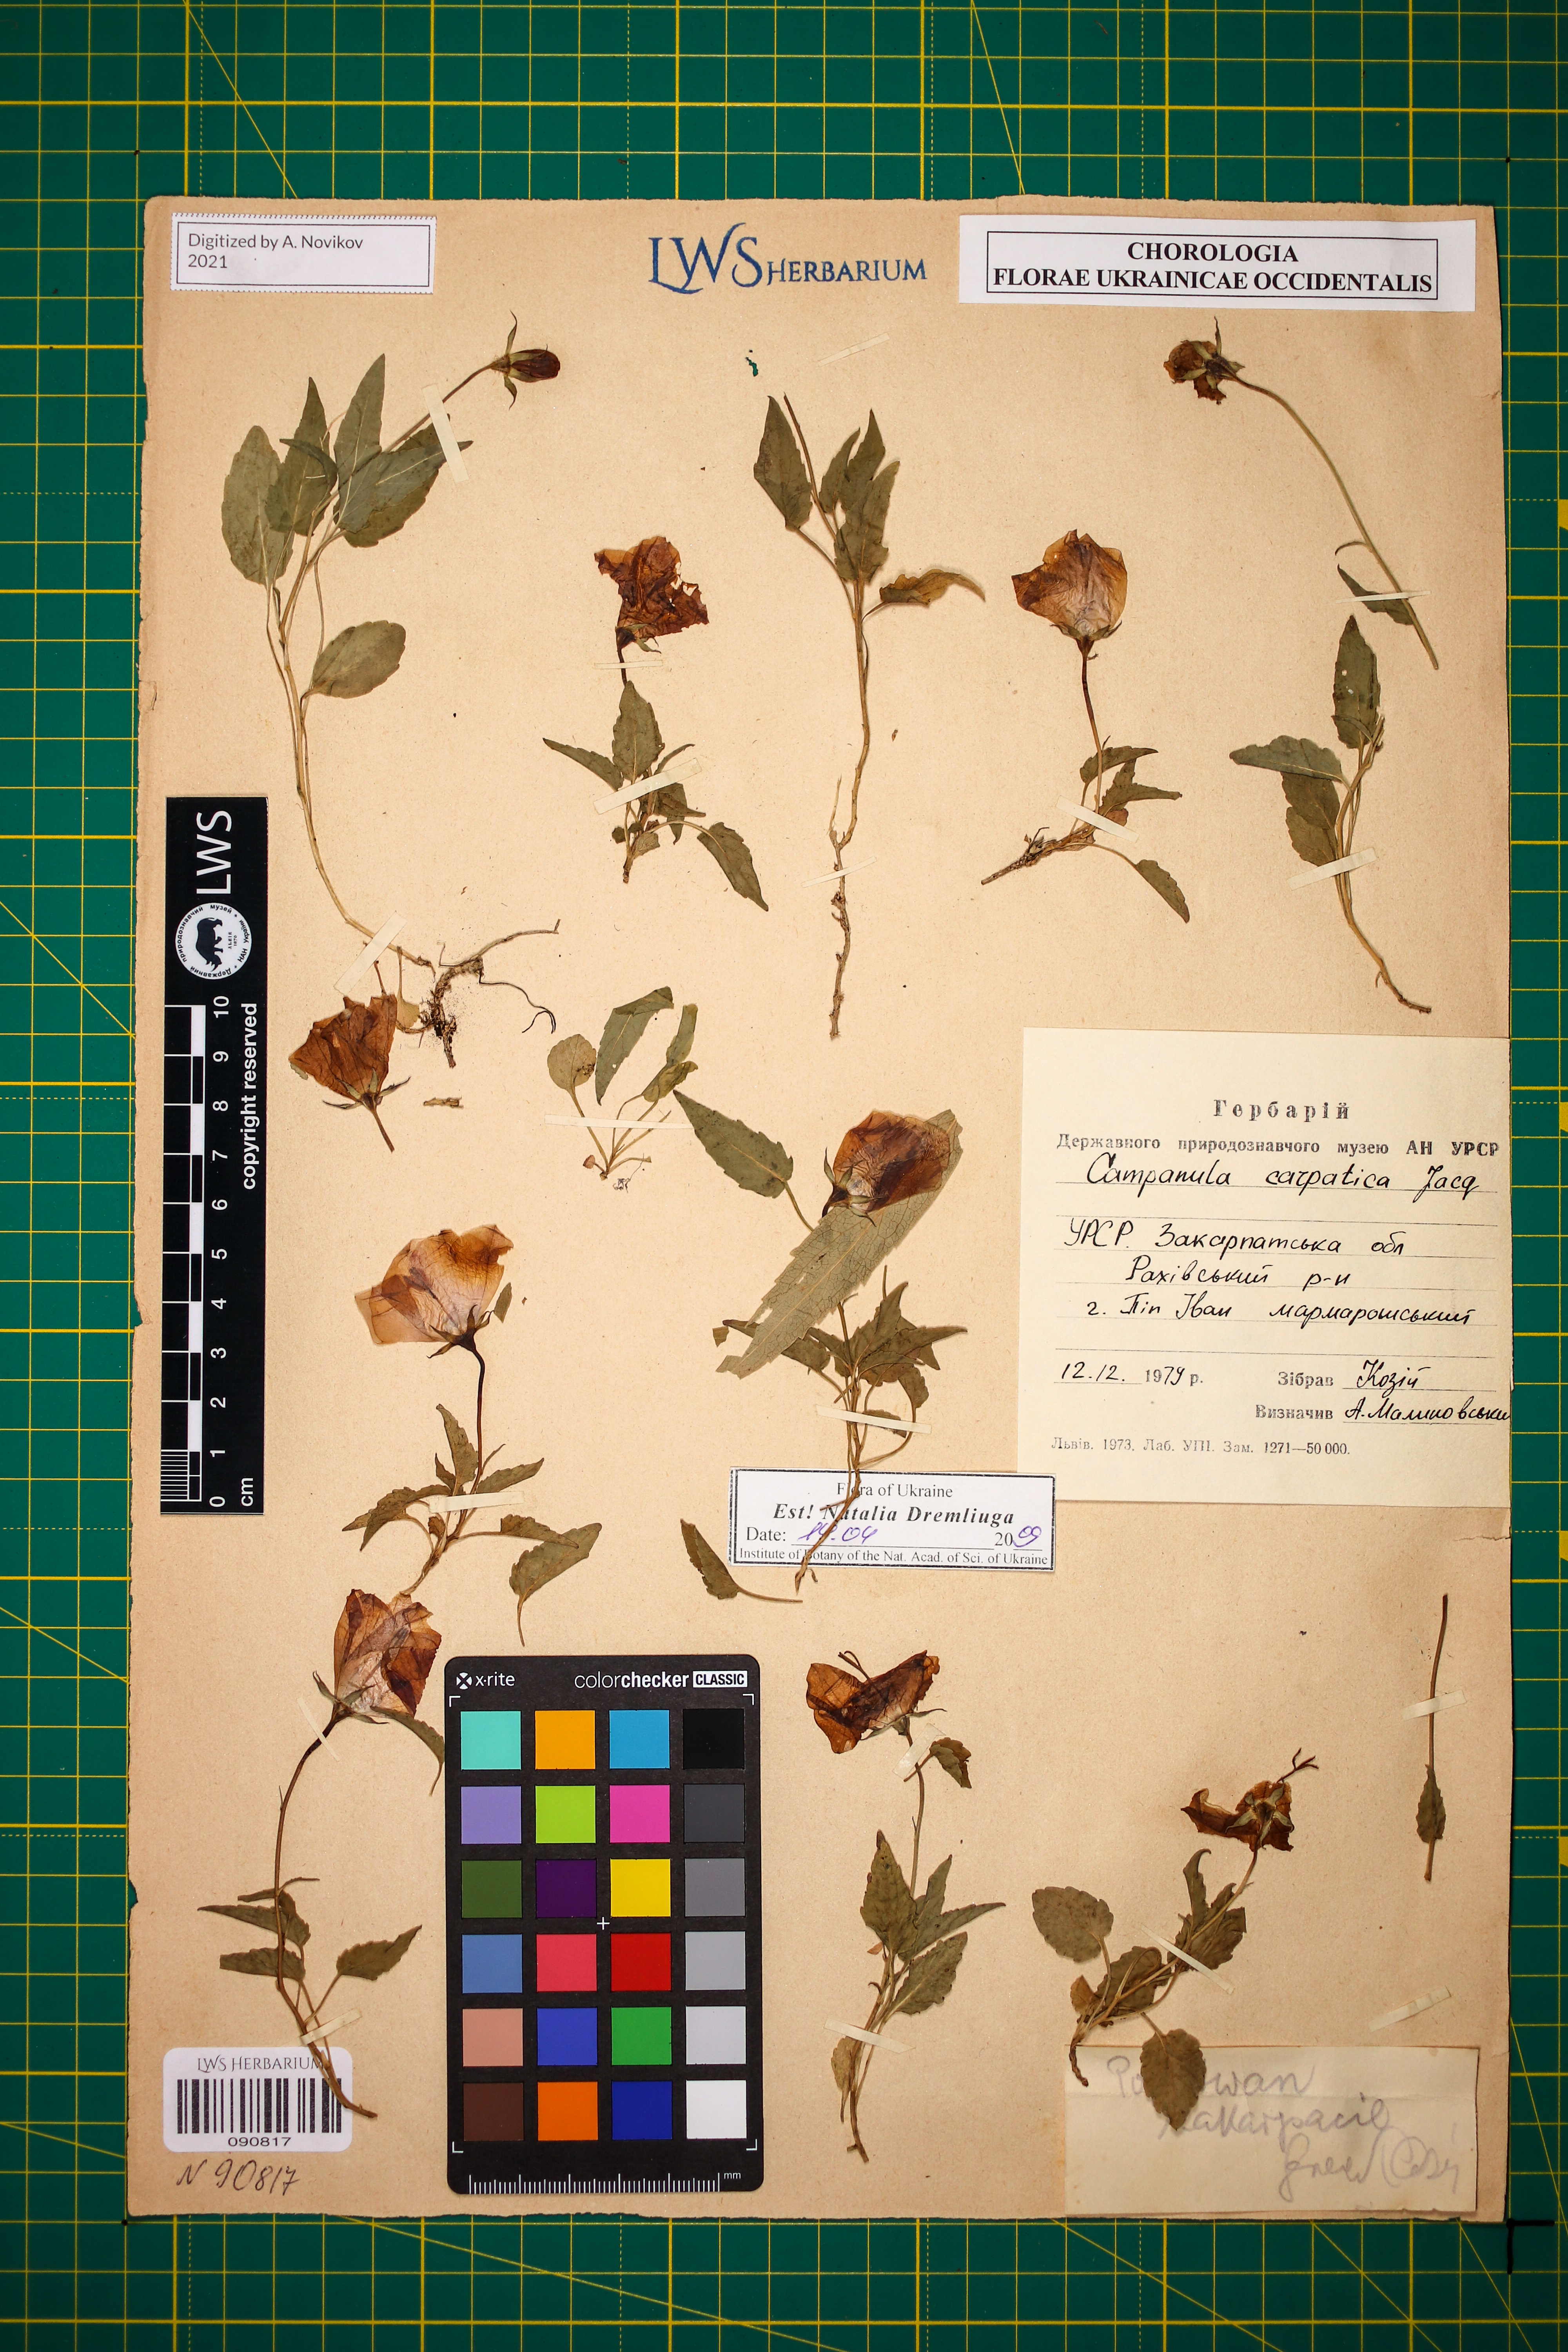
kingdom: Plantae
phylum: Tracheophyta
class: Magnoliopsida
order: Asterales
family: Campanulaceae
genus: Campanula
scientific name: Campanula carpatica
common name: Tussock bellflower
